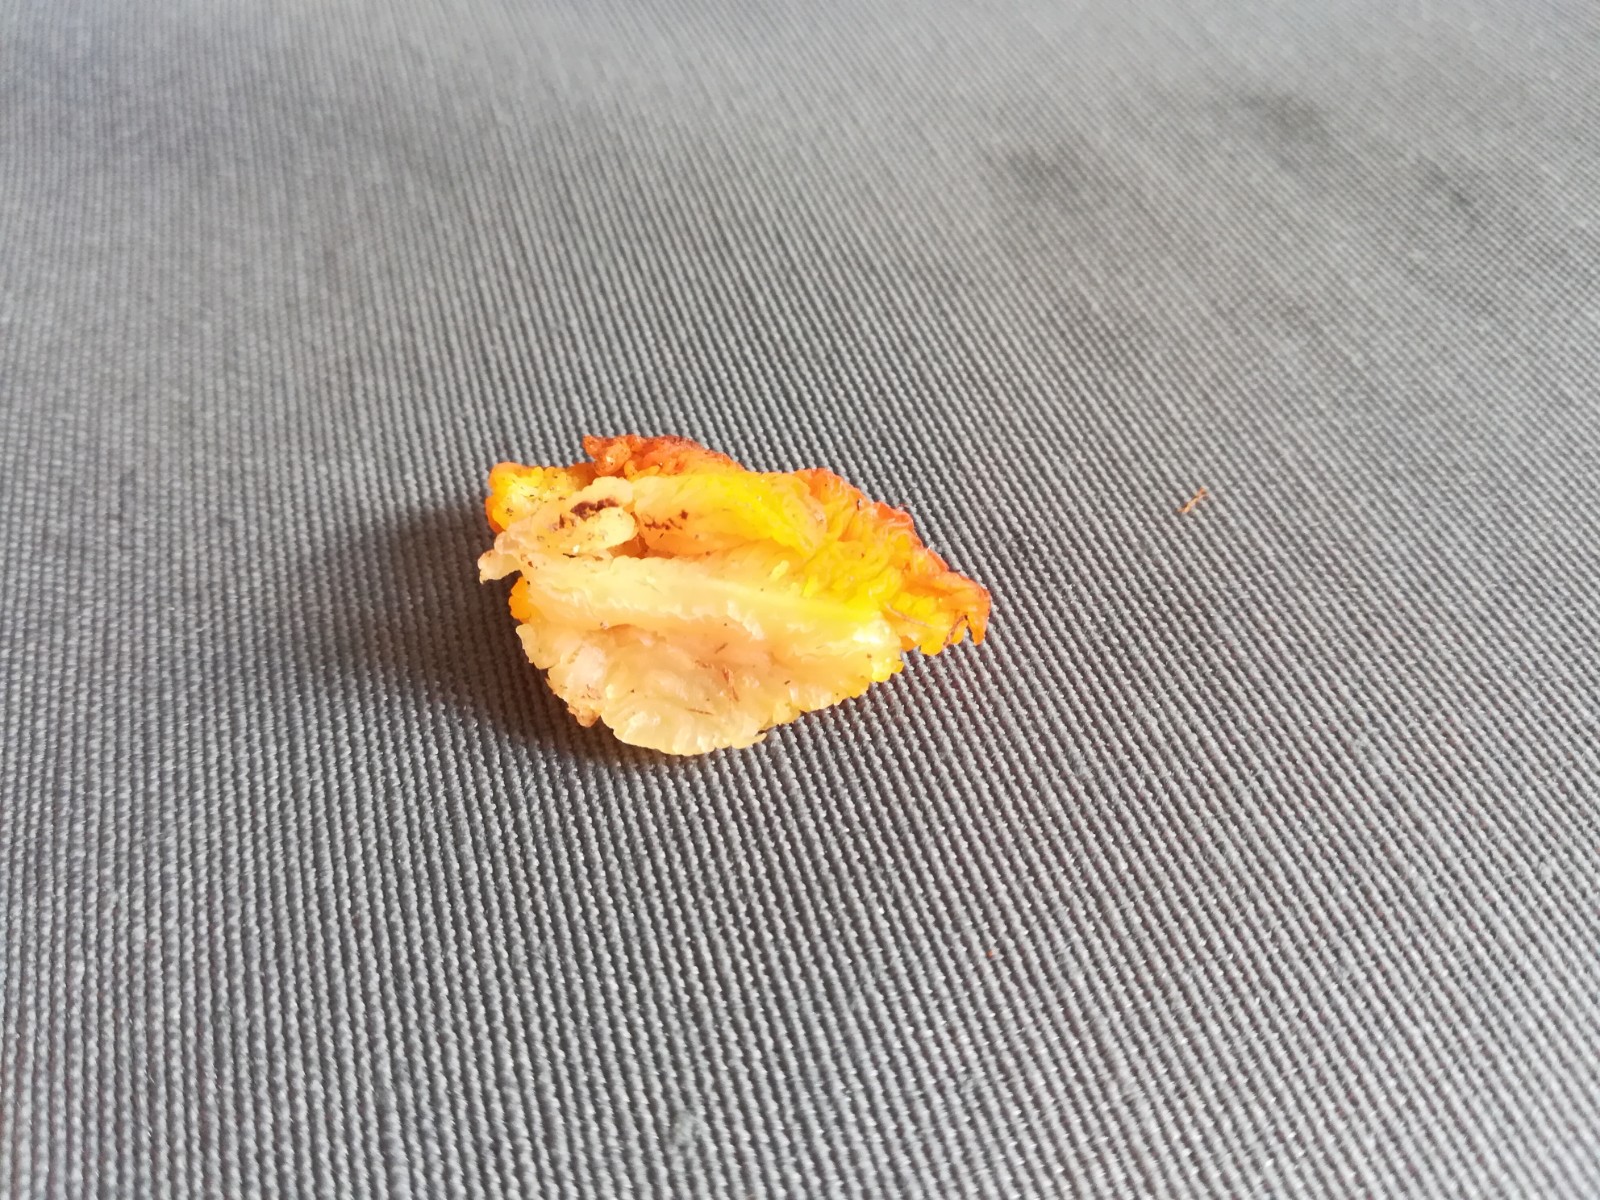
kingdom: Fungi
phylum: Basidiomycota
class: Tremellomycetes
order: Tremellales
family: Tremellaceae
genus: Tremella
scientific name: Tremella mesenterica
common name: gul bævresvamp
